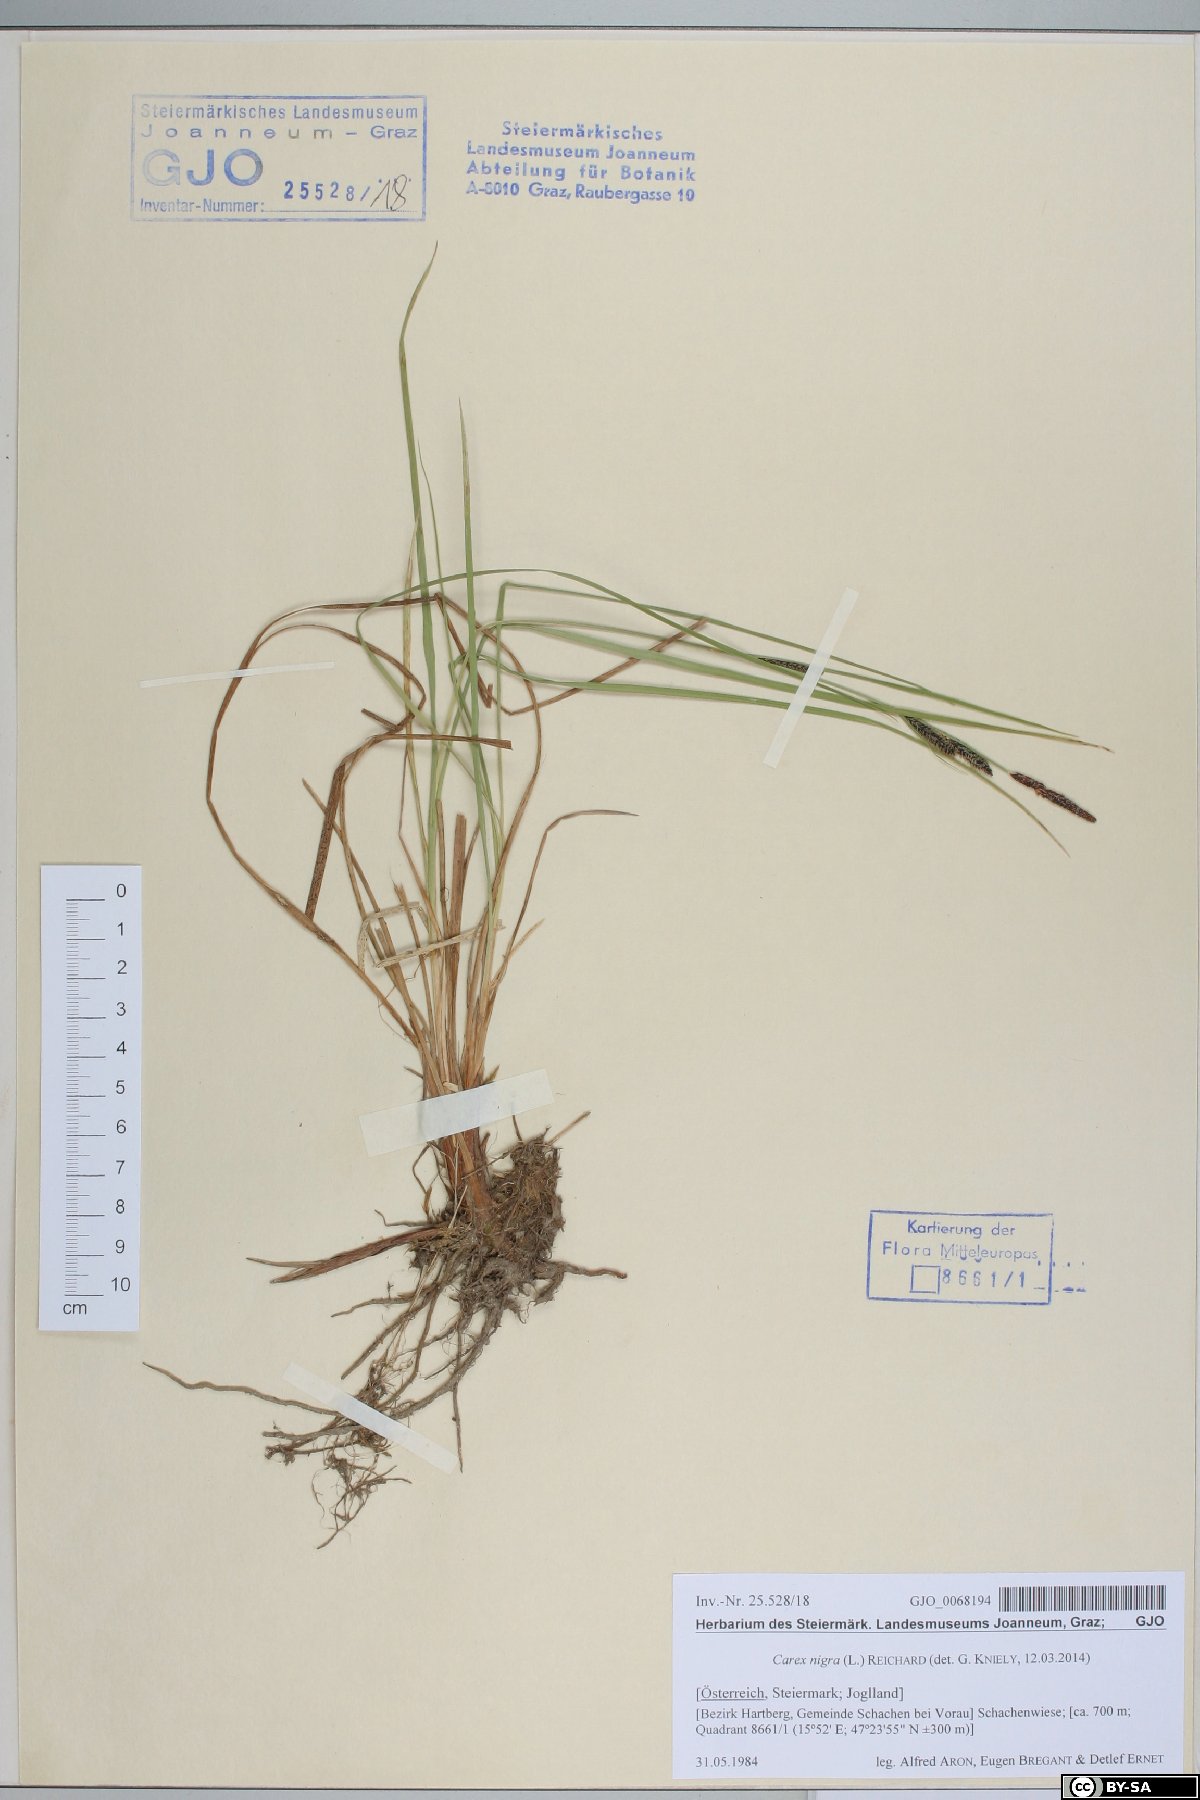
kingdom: Plantae
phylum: Tracheophyta
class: Liliopsida
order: Poales
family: Cyperaceae
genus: Carex
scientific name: Carex nigra
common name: Common sedge
